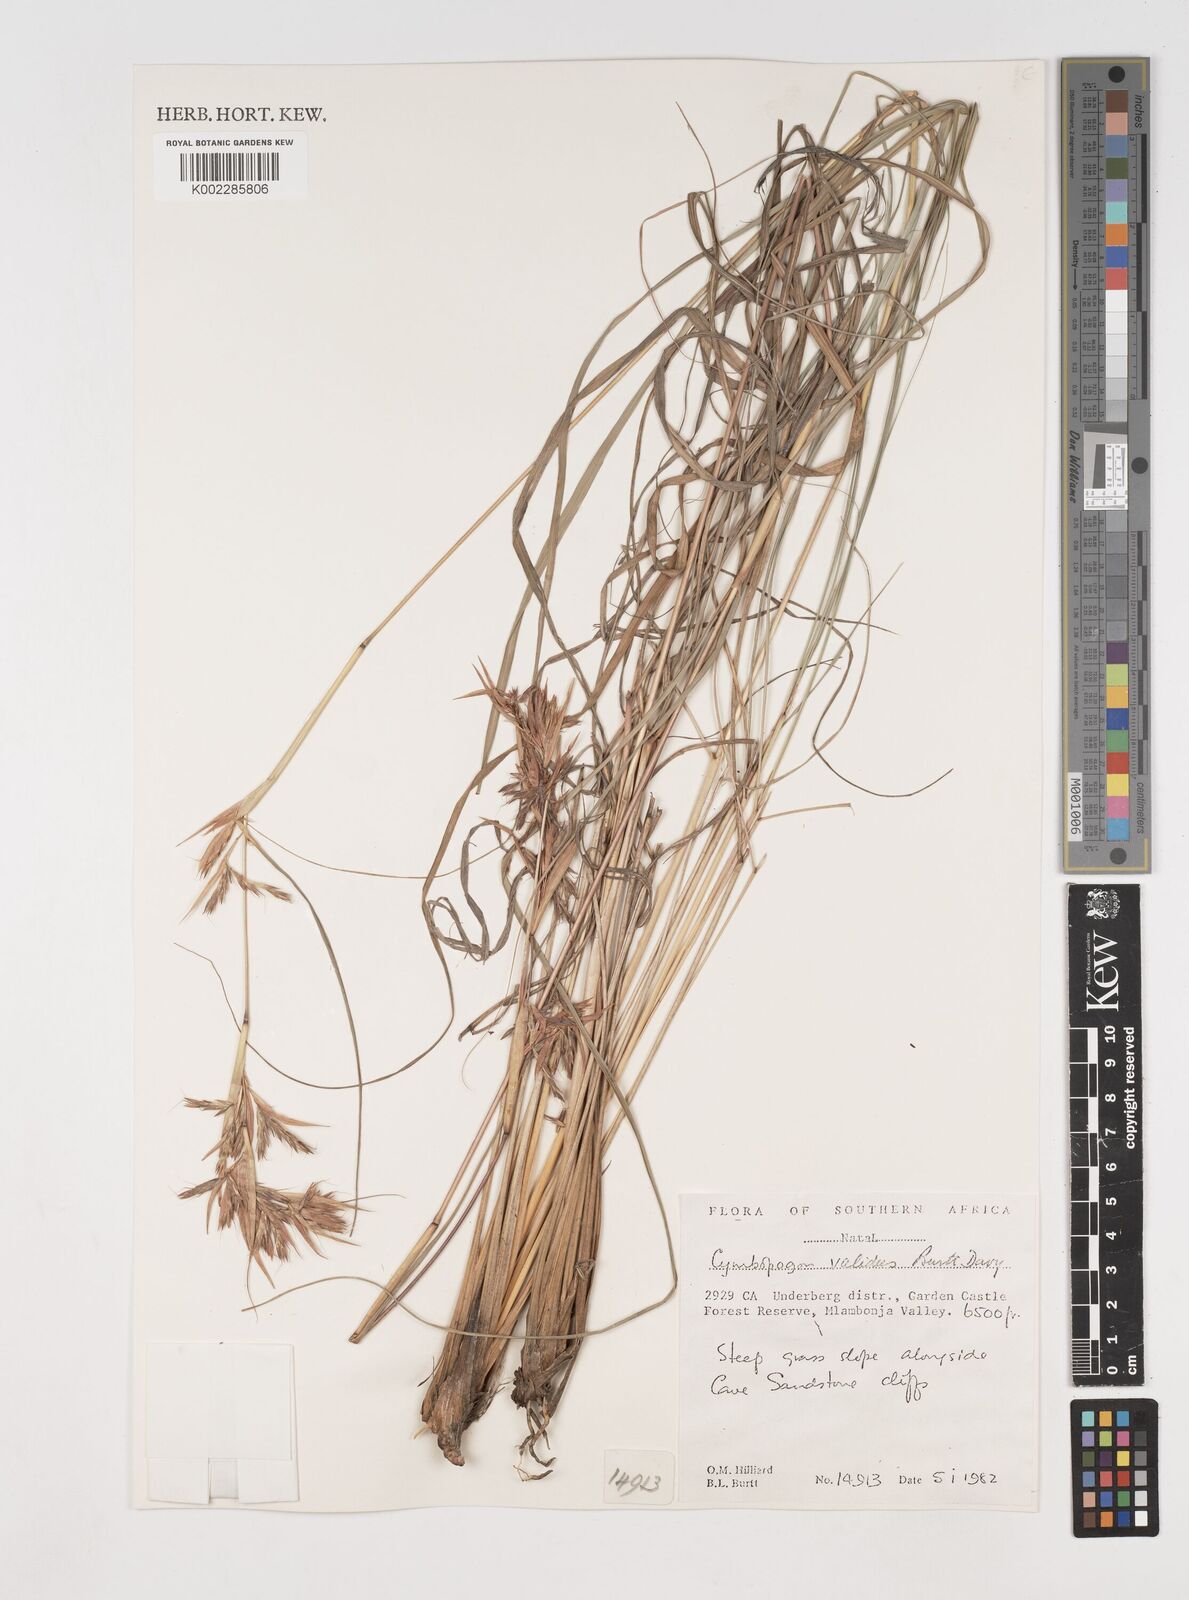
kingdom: Plantae
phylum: Tracheophyta
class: Liliopsida
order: Poales
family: Poaceae
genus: Cymbopogon
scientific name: Cymbopogon nardus
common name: Giant turpentine grass
